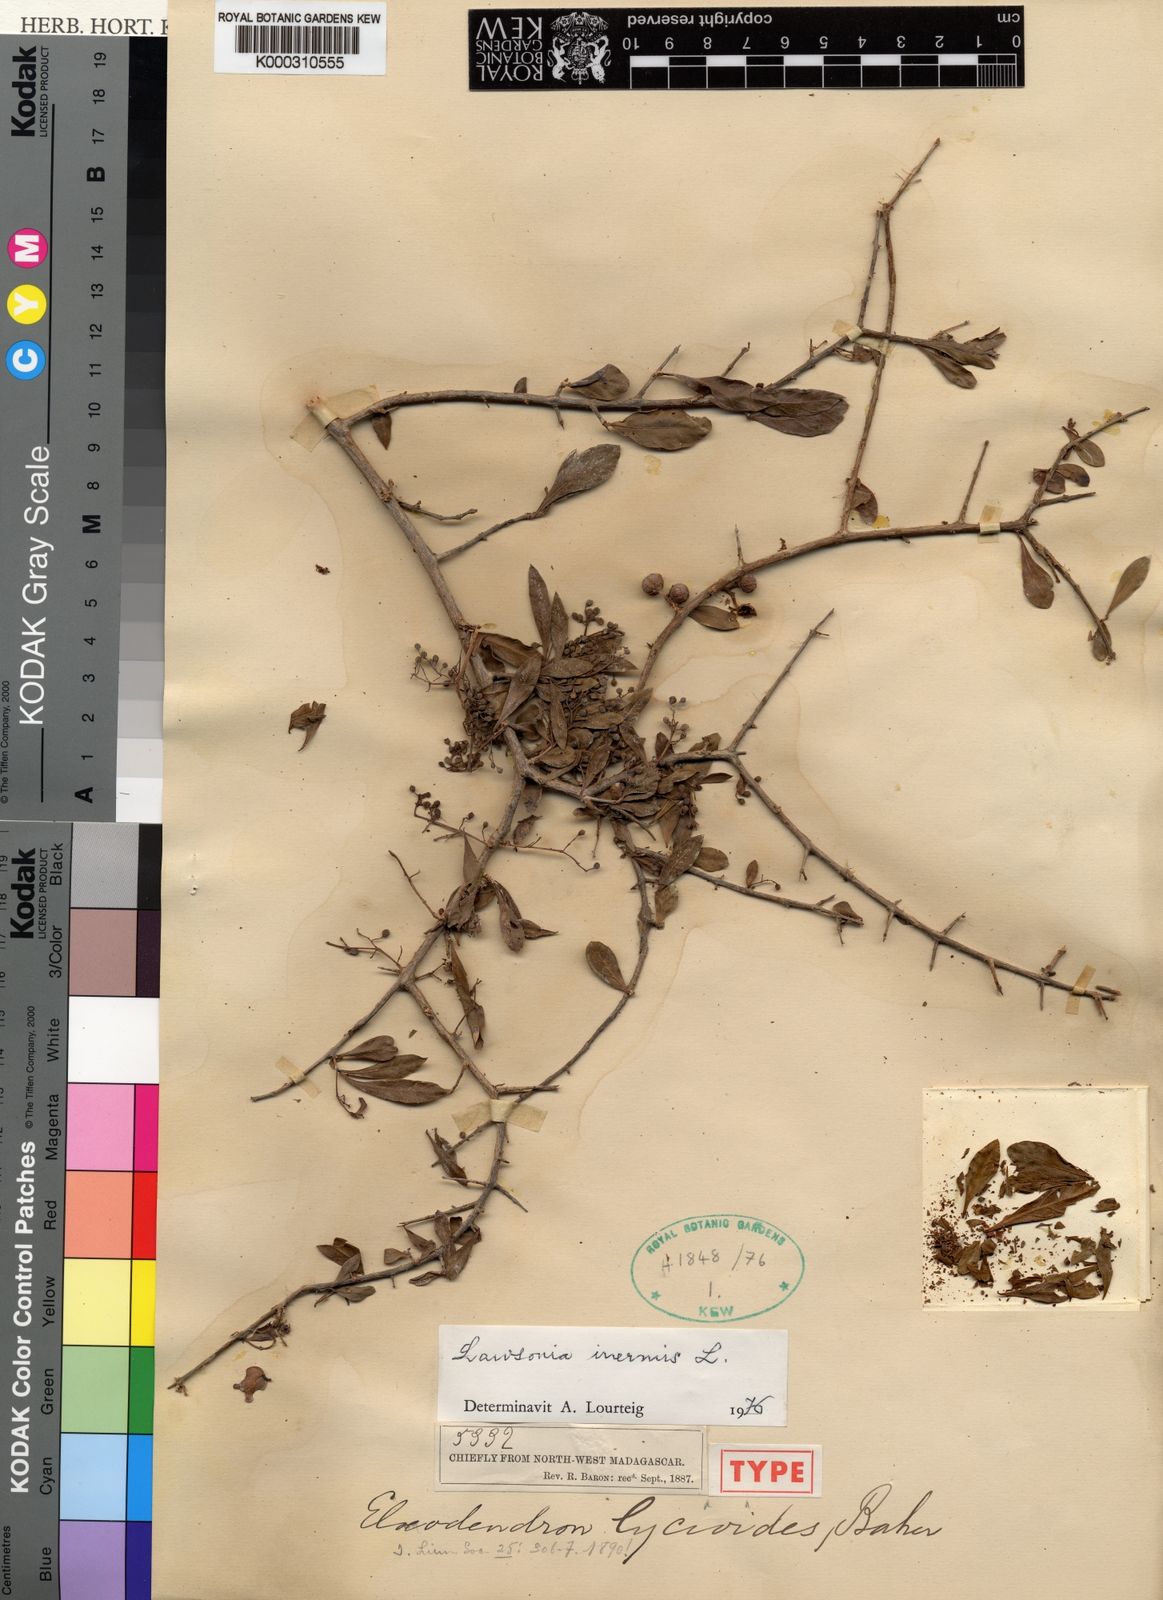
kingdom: Plantae
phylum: Tracheophyta
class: Magnoliopsida
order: Myrtales
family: Lythraceae
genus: Lawsonia
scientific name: Lawsonia inermis
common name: Henna
